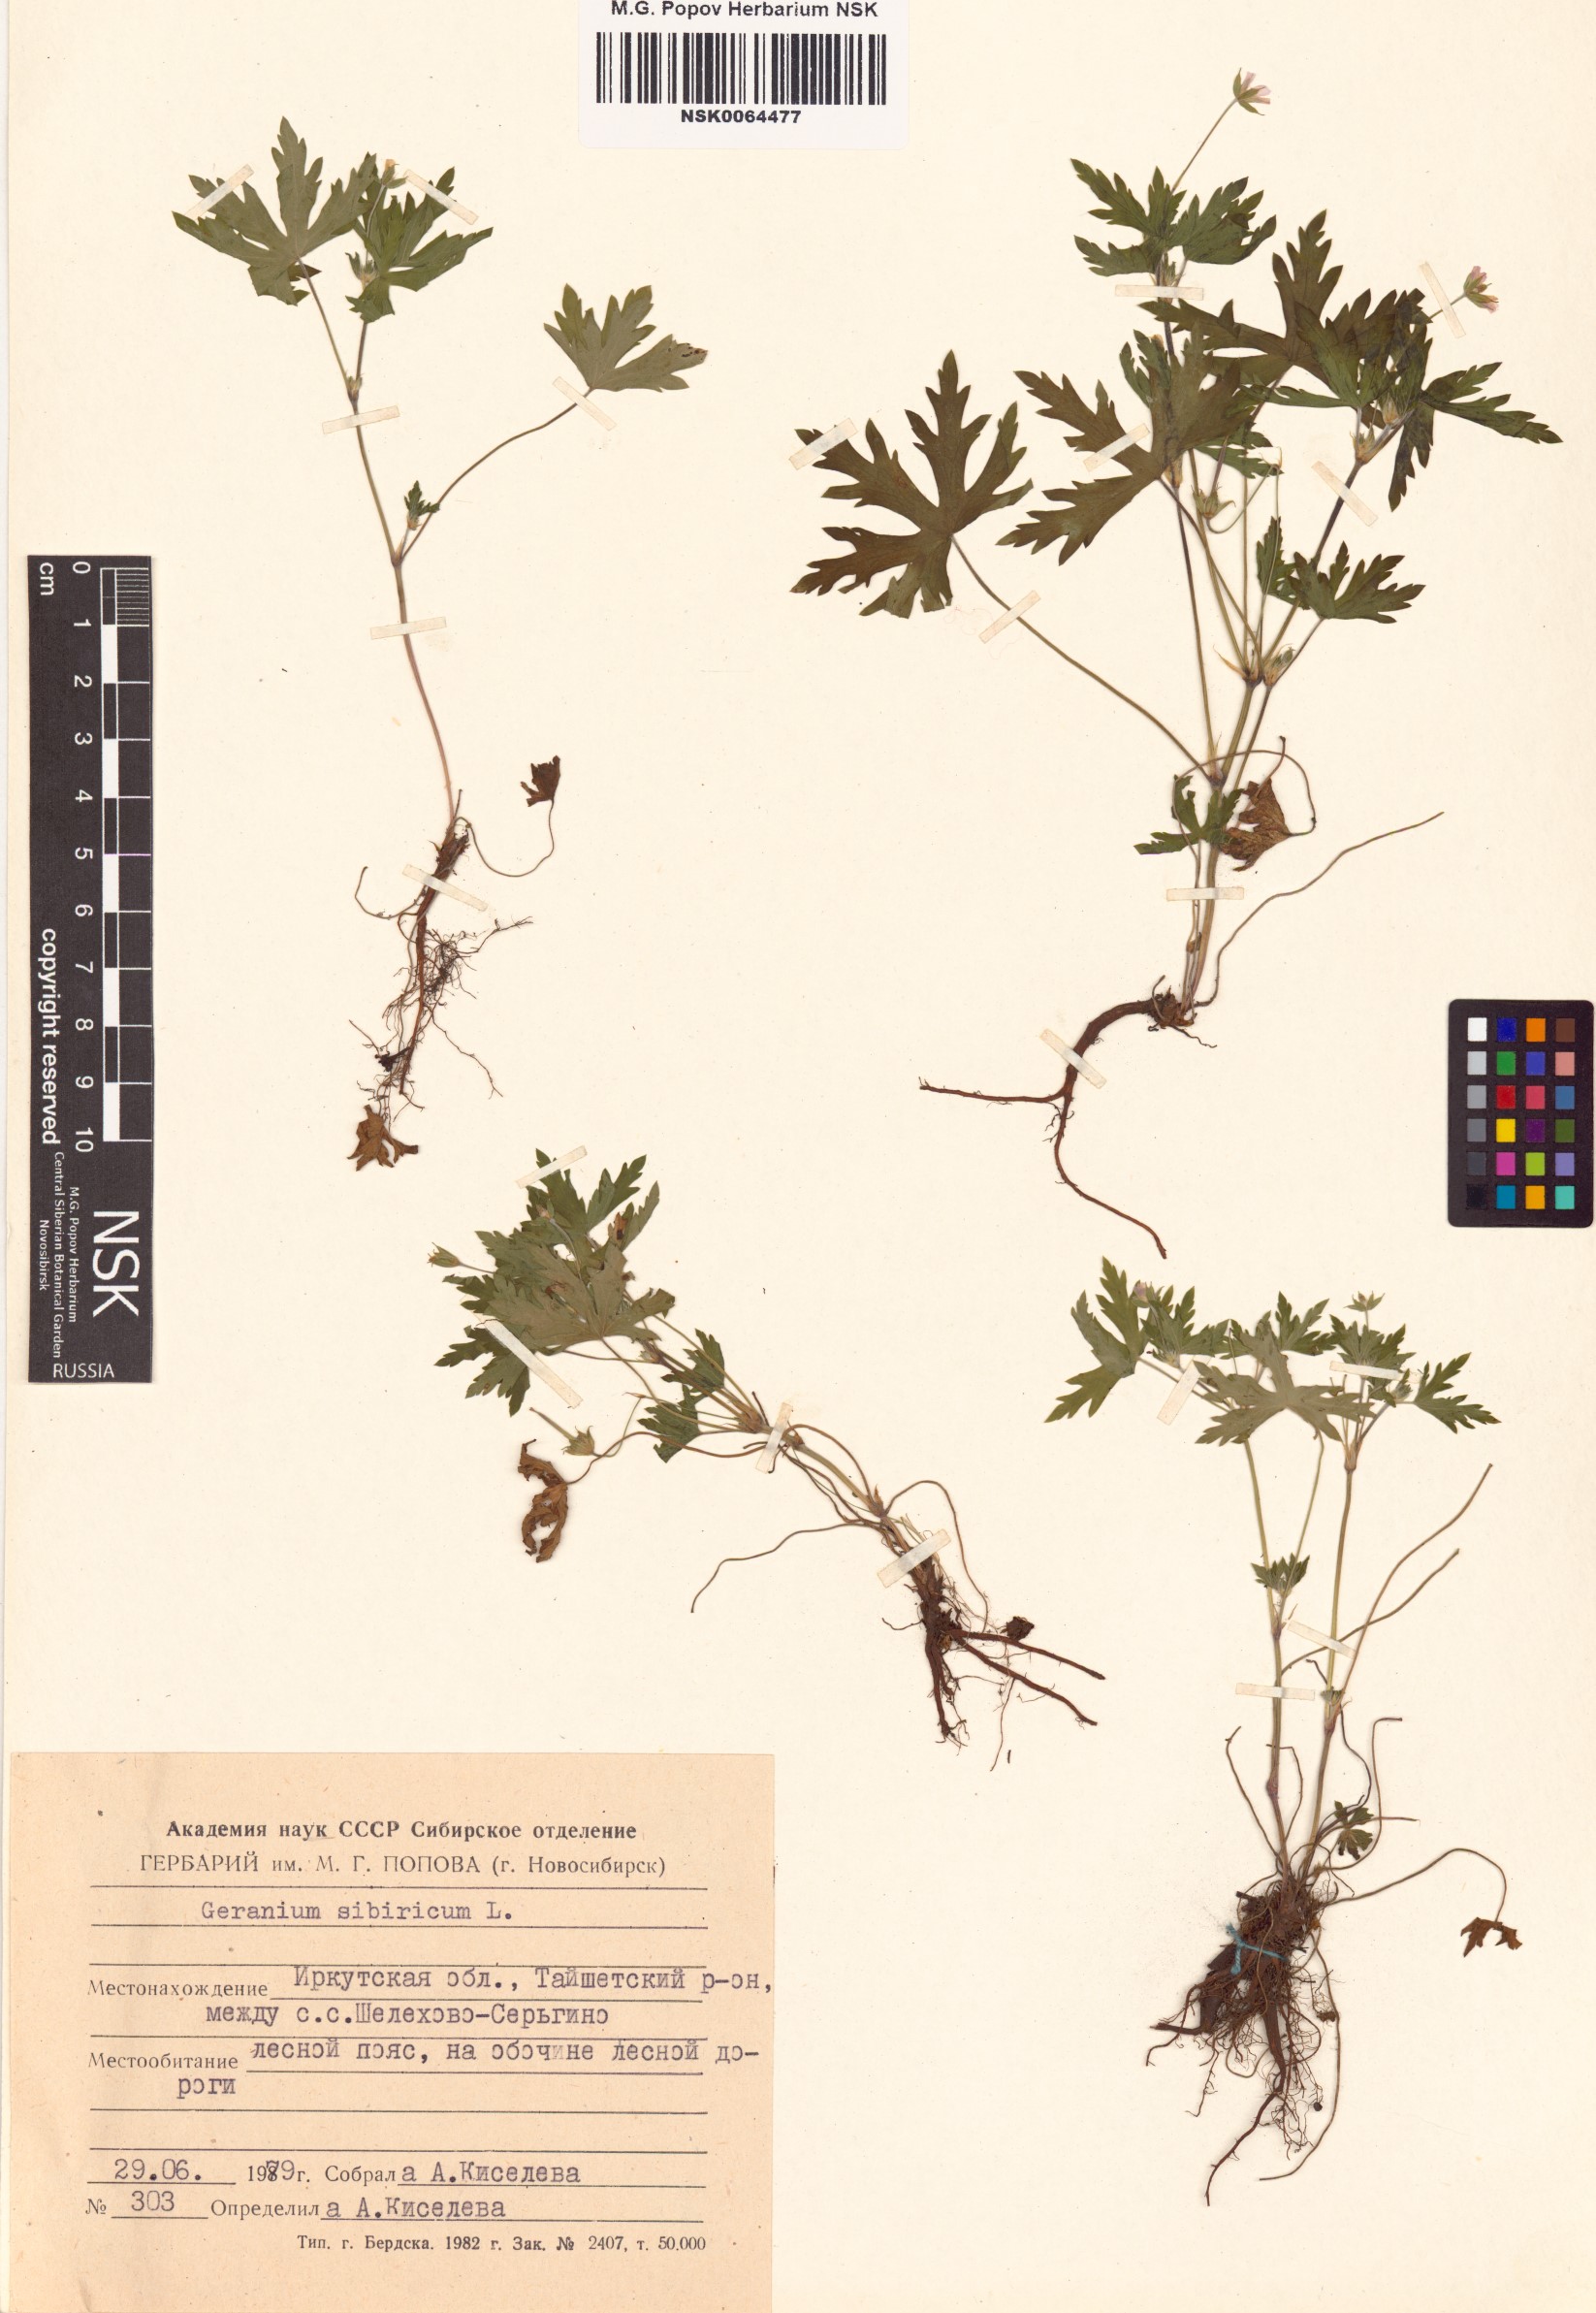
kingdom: Plantae
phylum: Tracheophyta
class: Magnoliopsida
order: Geraniales
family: Geraniaceae
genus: Geranium
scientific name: Geranium sibiricum
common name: Siberian crane's-bill
